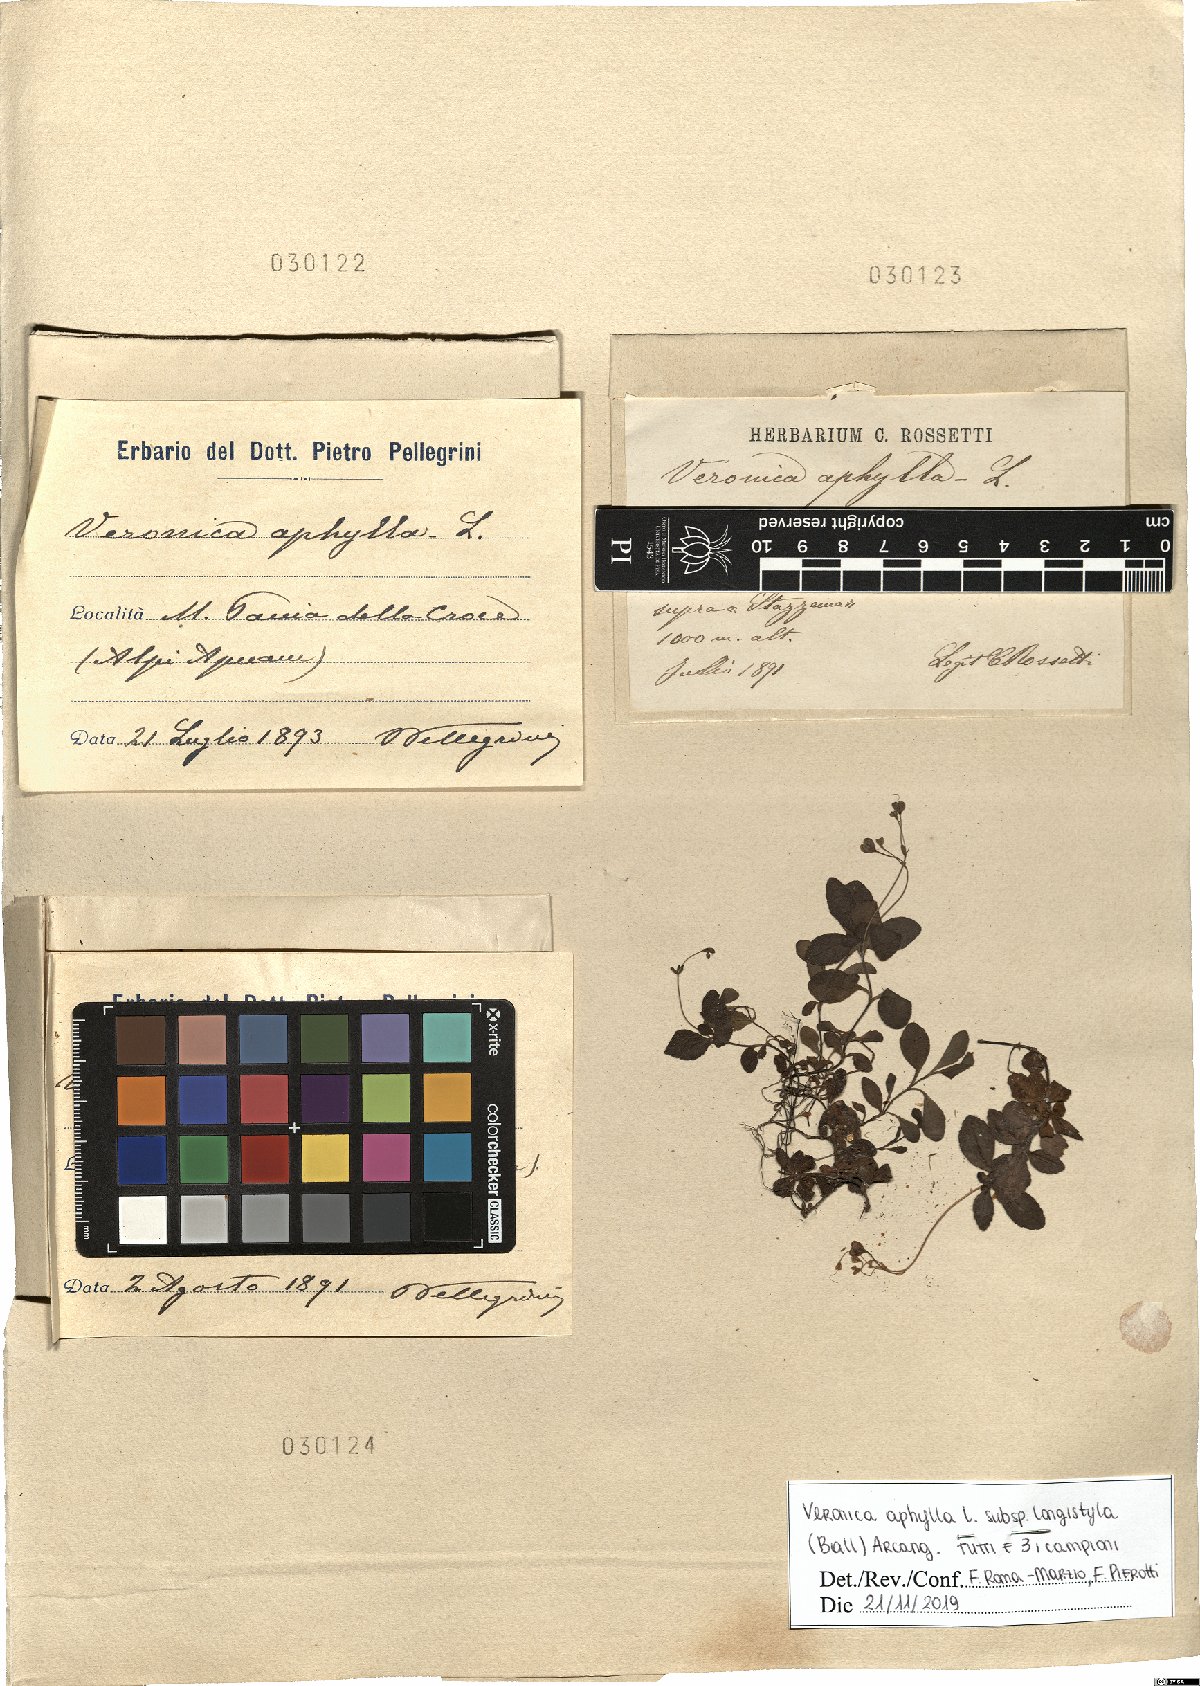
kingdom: Plantae
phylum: Tracheophyta
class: Magnoliopsida
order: Lamiales
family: Plantaginaceae
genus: Veronica
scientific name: Veronica aphylla
